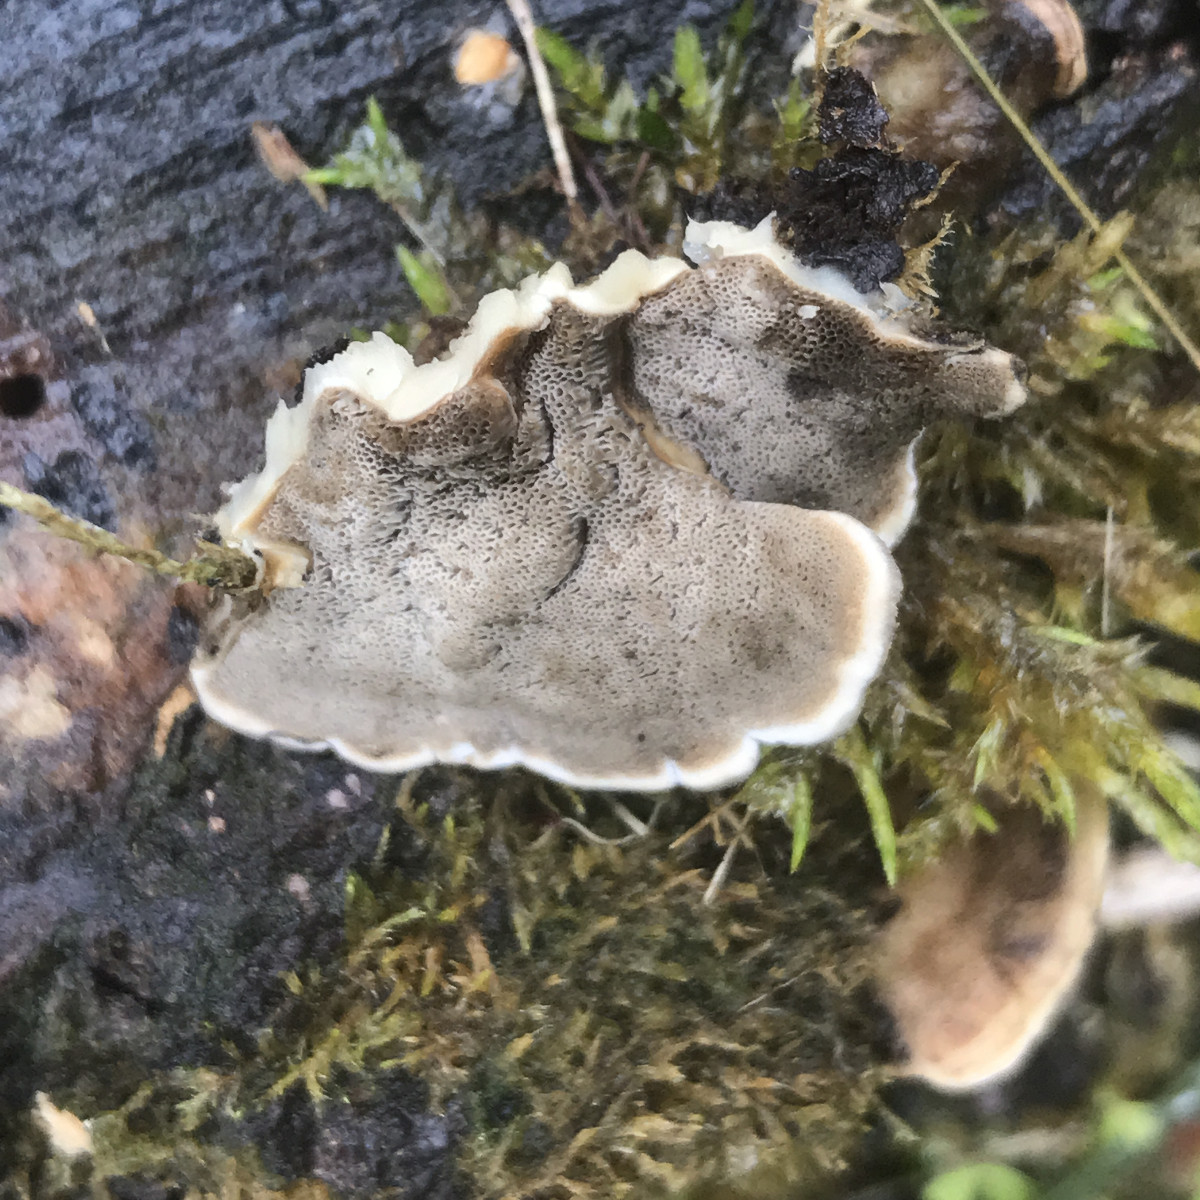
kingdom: Fungi
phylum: Basidiomycota
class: Agaricomycetes
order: Polyporales
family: Phanerochaetaceae
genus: Bjerkandera
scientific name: Bjerkandera adusta
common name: sveden sodporesvamp
